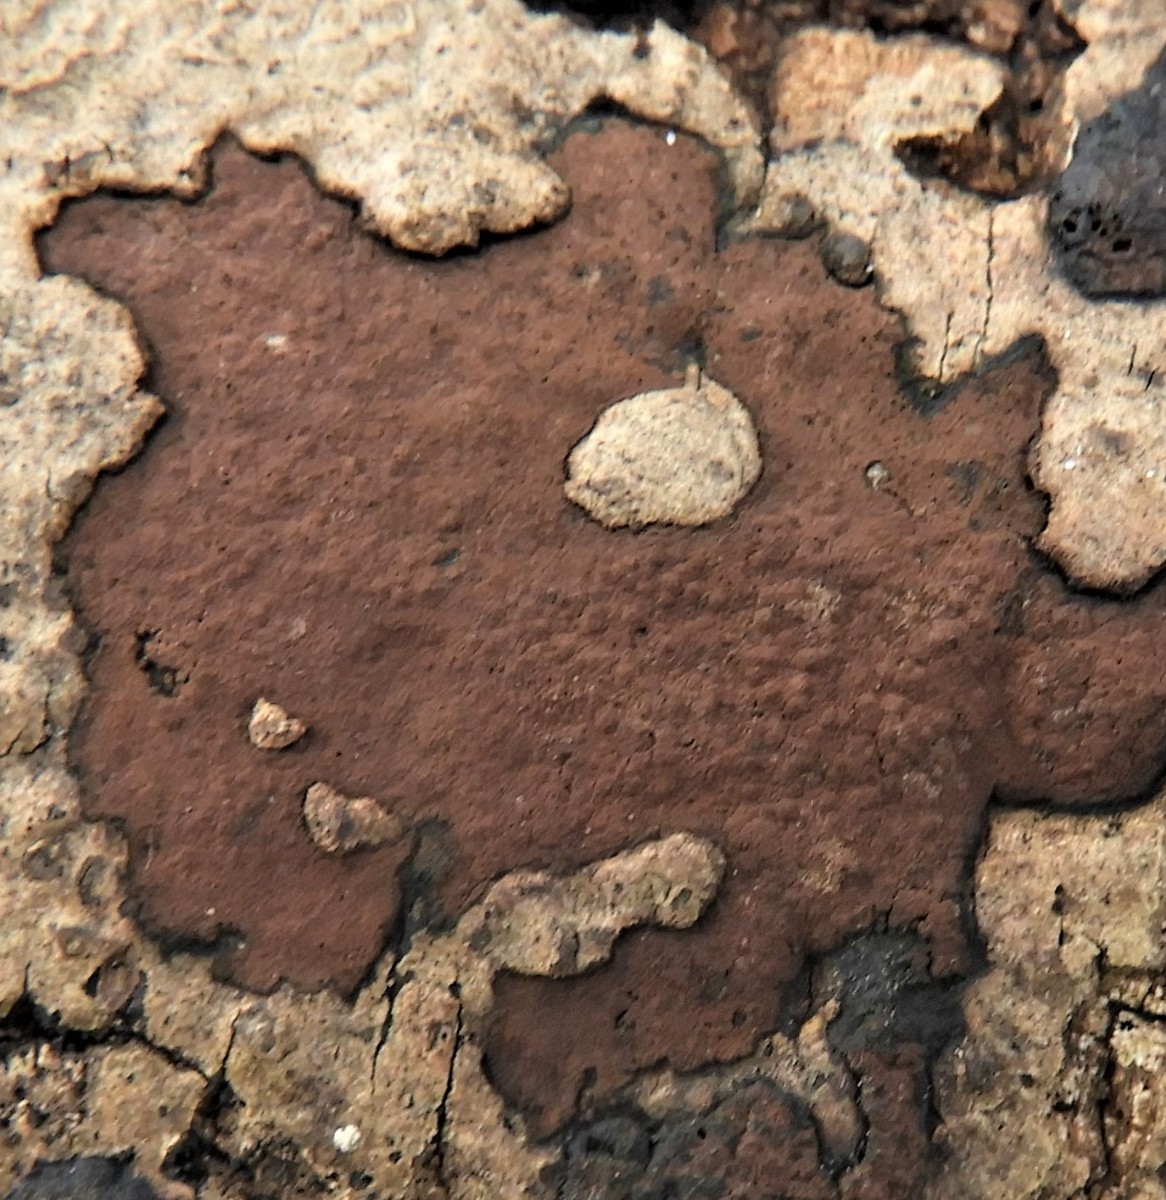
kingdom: Fungi
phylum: Ascomycota
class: Sordariomycetes
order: Xylariales
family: Hypoxylaceae
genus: Hypoxylon
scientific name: Hypoxylon petriniae
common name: nedsænket kulbær
